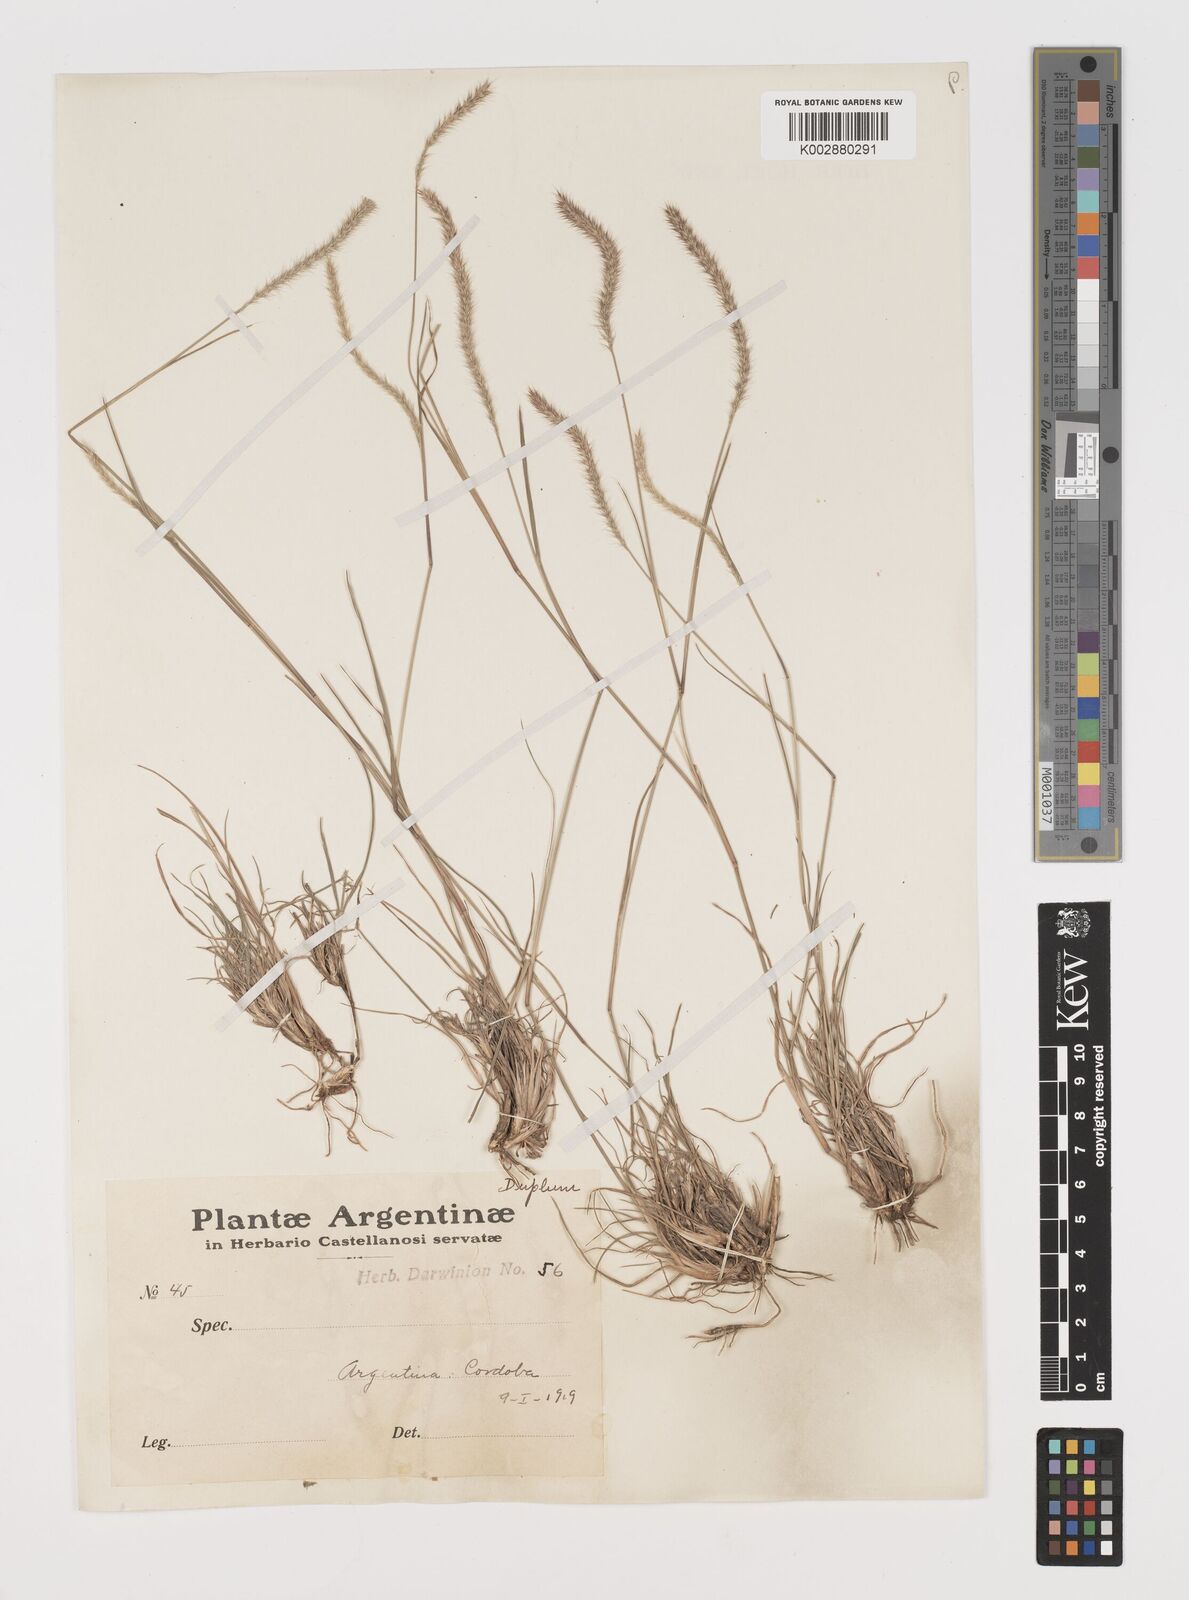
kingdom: Plantae
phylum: Tracheophyta
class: Liliopsida
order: Poales
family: Poaceae
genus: Muhlenbergia
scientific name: Muhlenbergia alopecuroides
